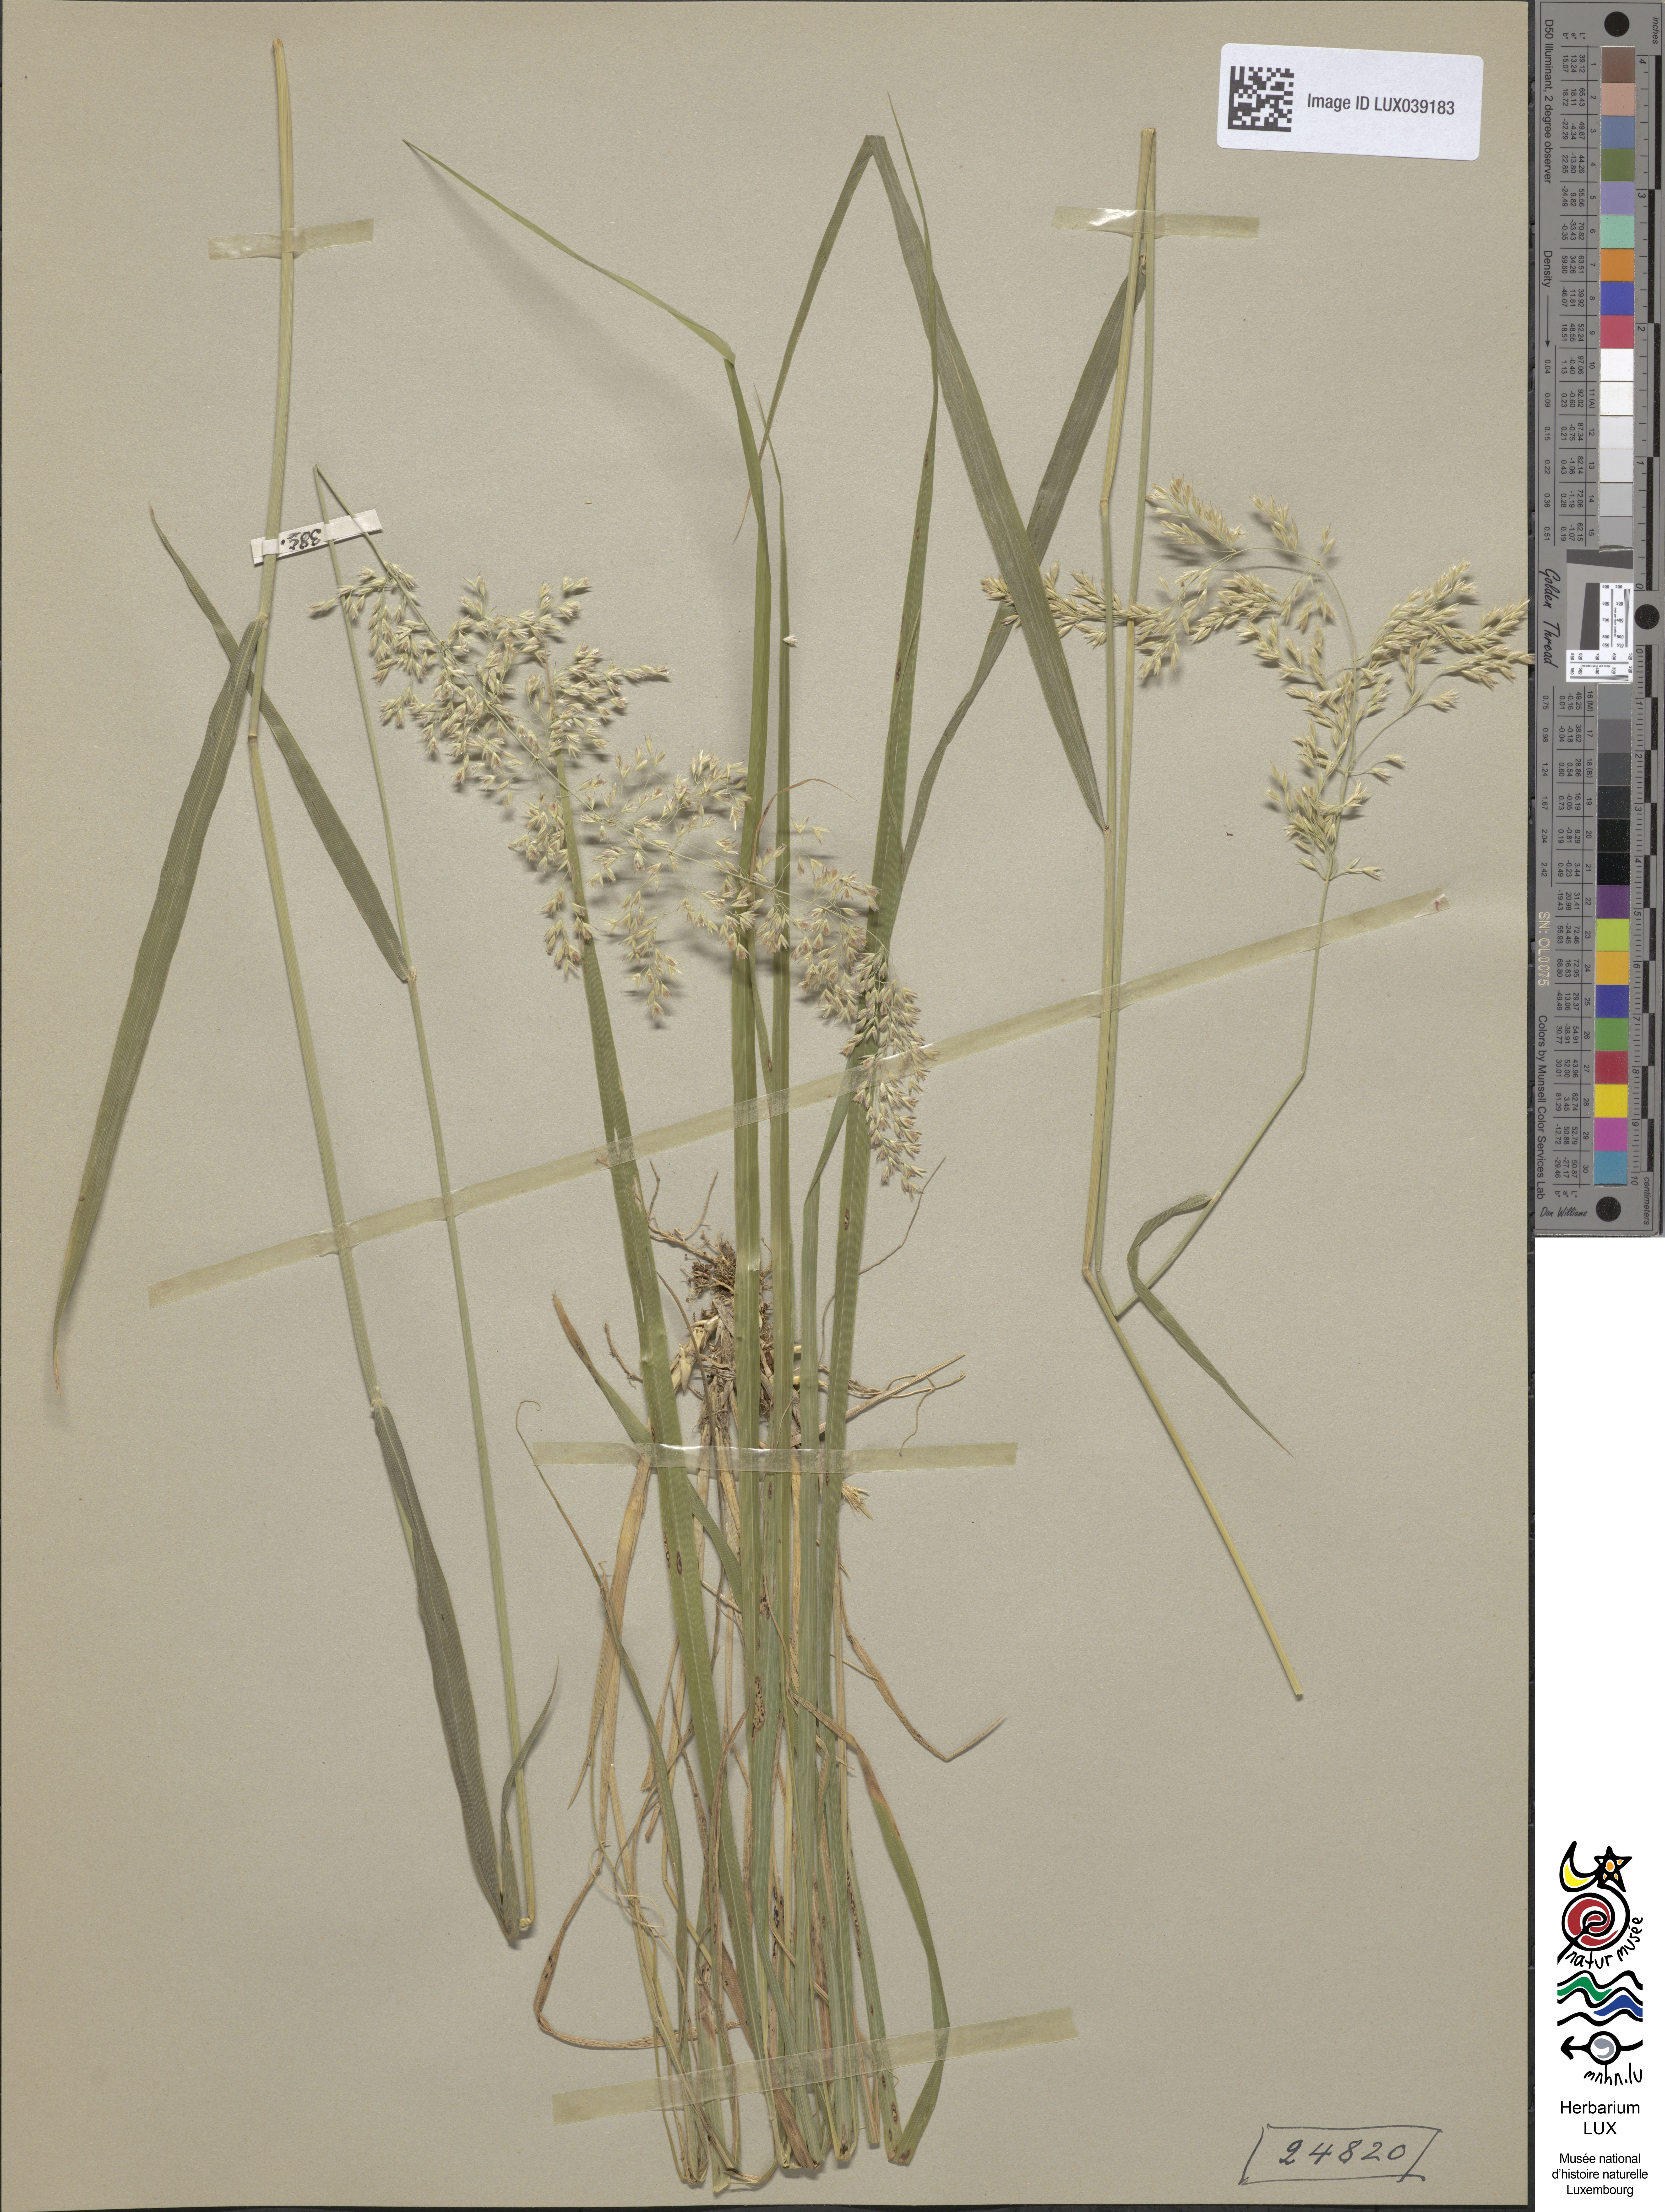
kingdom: Plantae
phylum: Tracheophyta
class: Liliopsida
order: Poales
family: Poaceae
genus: Calamagrostis
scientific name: Calamagrostis varia
